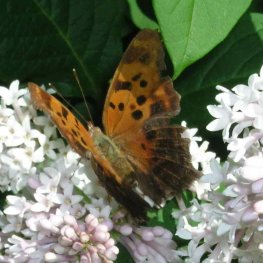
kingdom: Animalia
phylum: Arthropoda
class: Insecta
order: Lepidoptera
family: Nymphalidae
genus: Polygonia
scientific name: Polygonia interrogationis
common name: Question Mark
